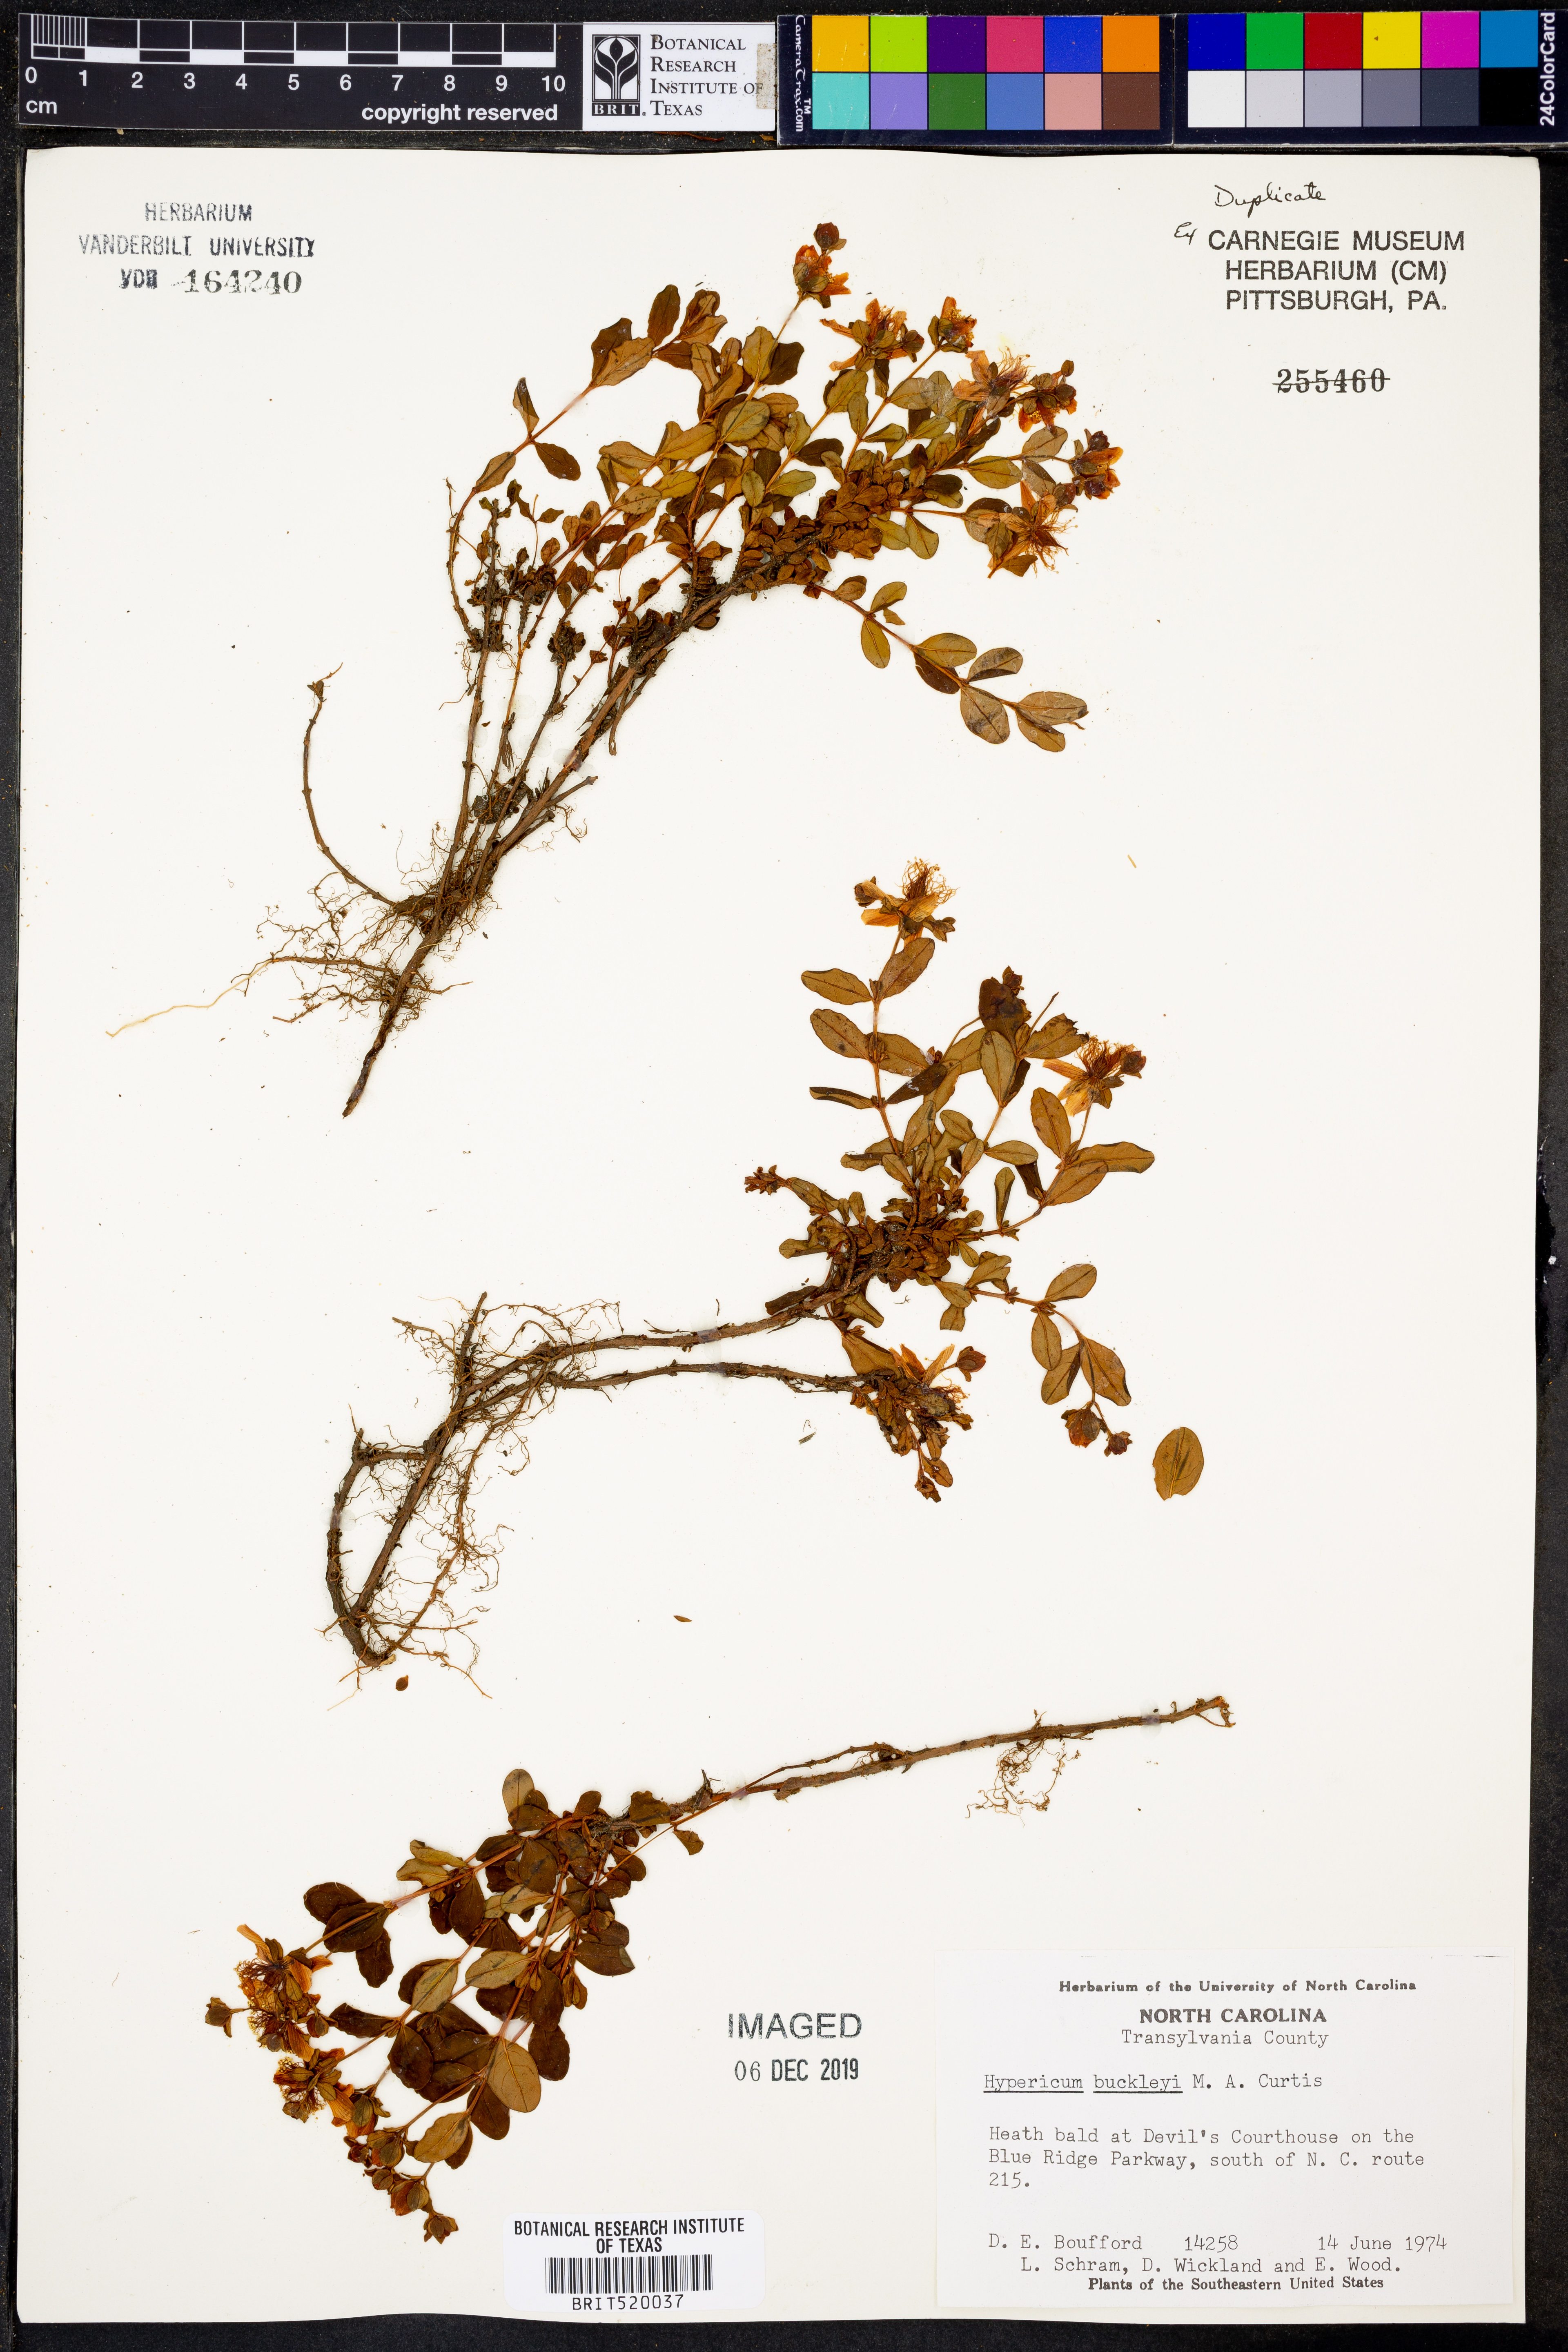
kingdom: Plantae
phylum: Tracheophyta
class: Magnoliopsida
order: Malpighiales
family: Hypericaceae
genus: Hypericum
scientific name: Hypericum buckleyi
